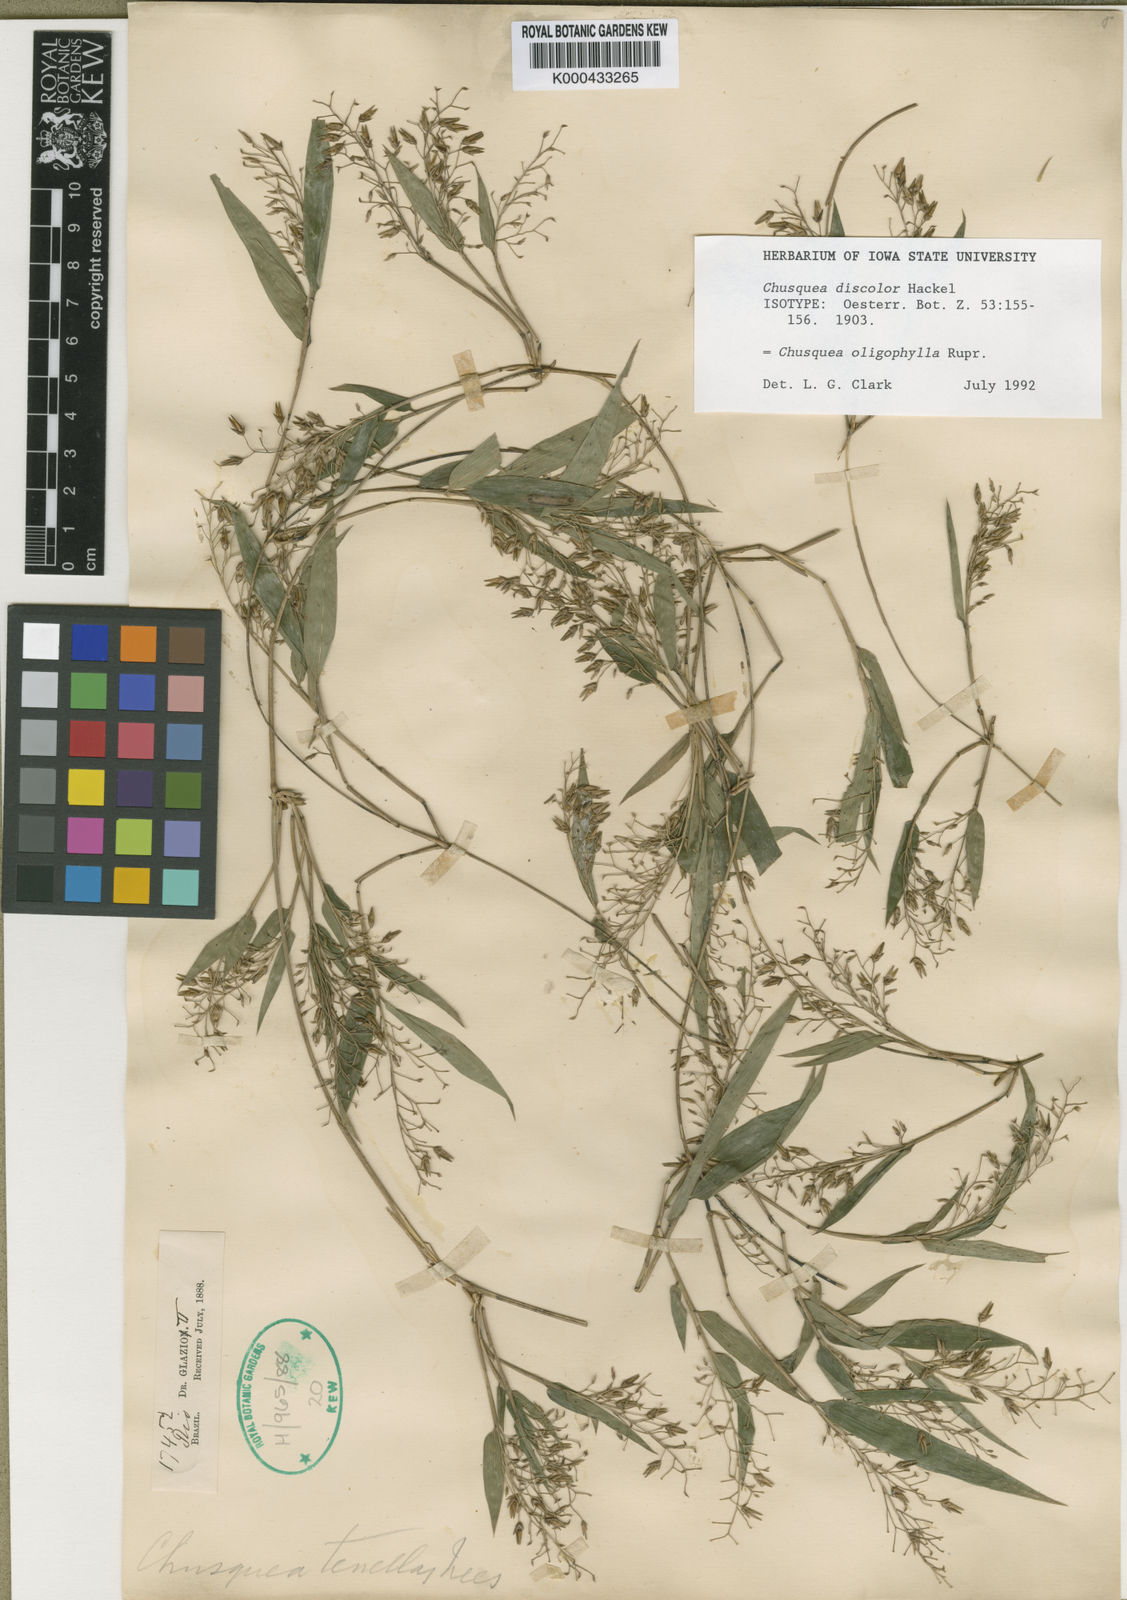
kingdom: Plantae
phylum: Tracheophyta
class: Liliopsida
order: Poales
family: Poaceae
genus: Chusquea
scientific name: Chusquea oligophylla
